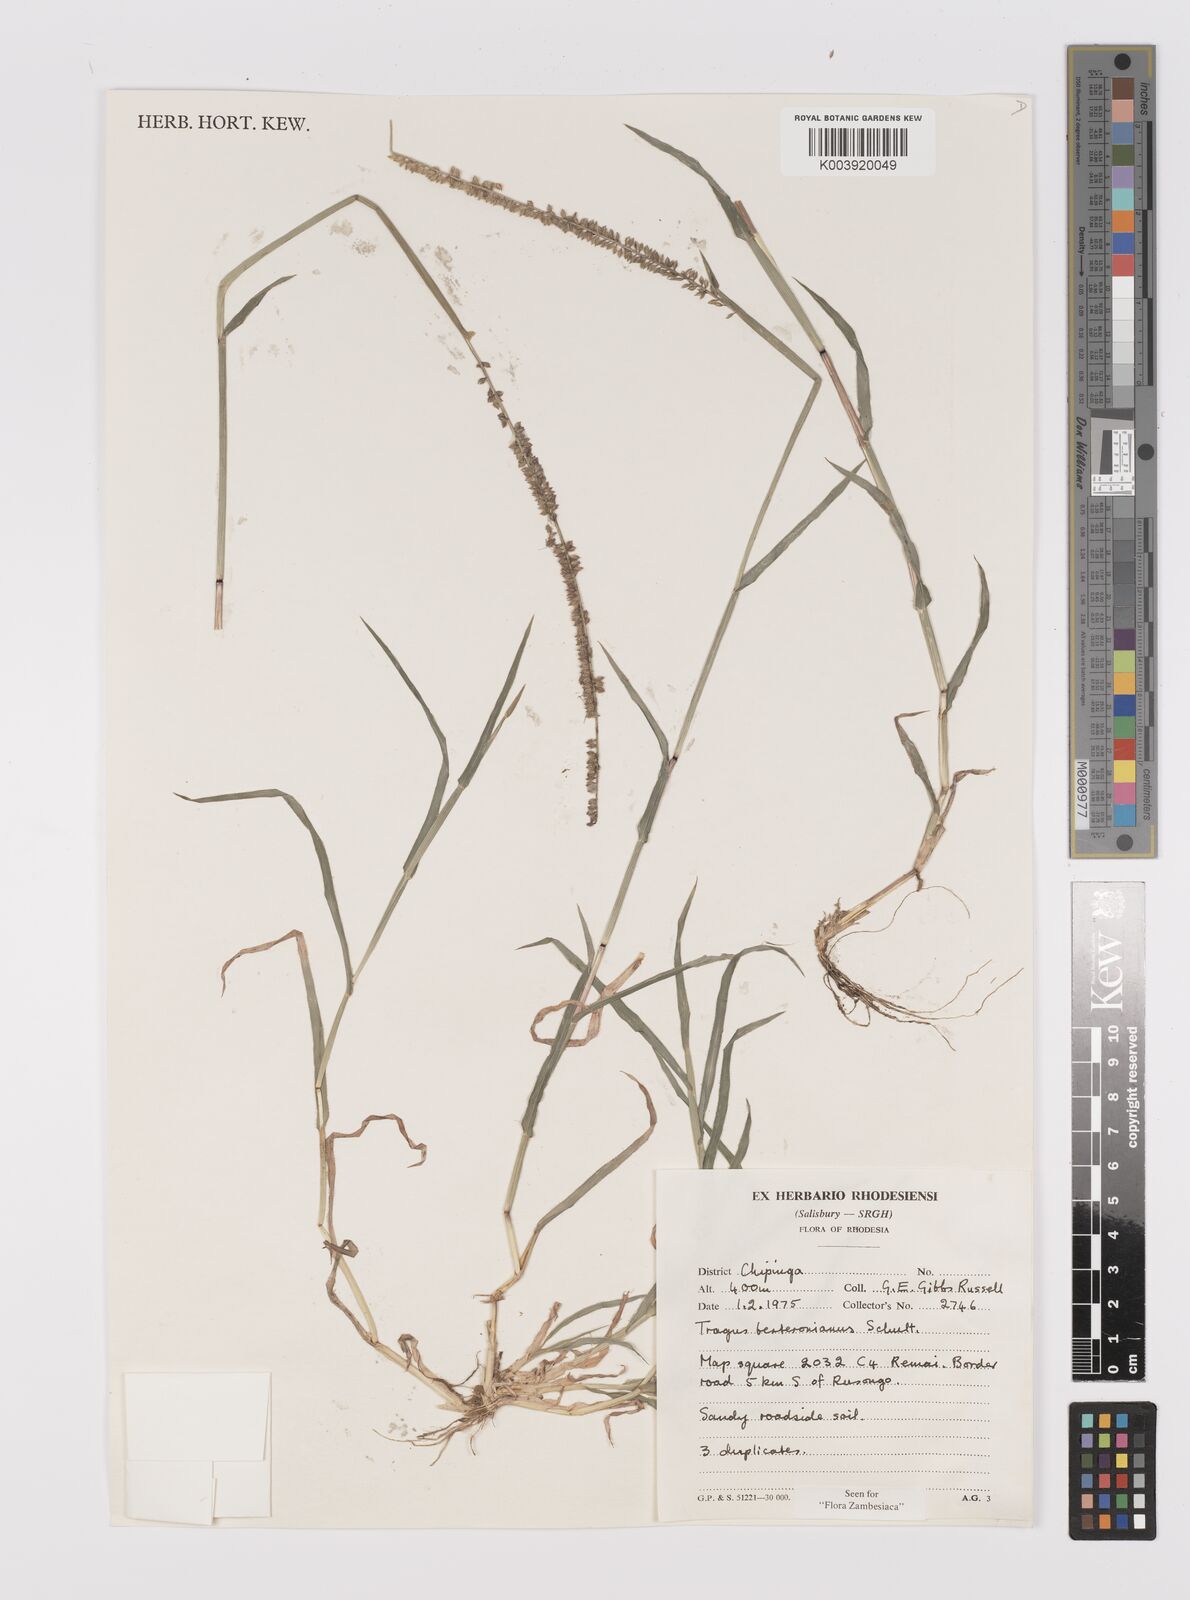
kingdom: Plantae
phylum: Tracheophyta
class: Liliopsida
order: Poales
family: Poaceae
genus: Tragus
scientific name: Tragus berteronianus
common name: African bur-grass
